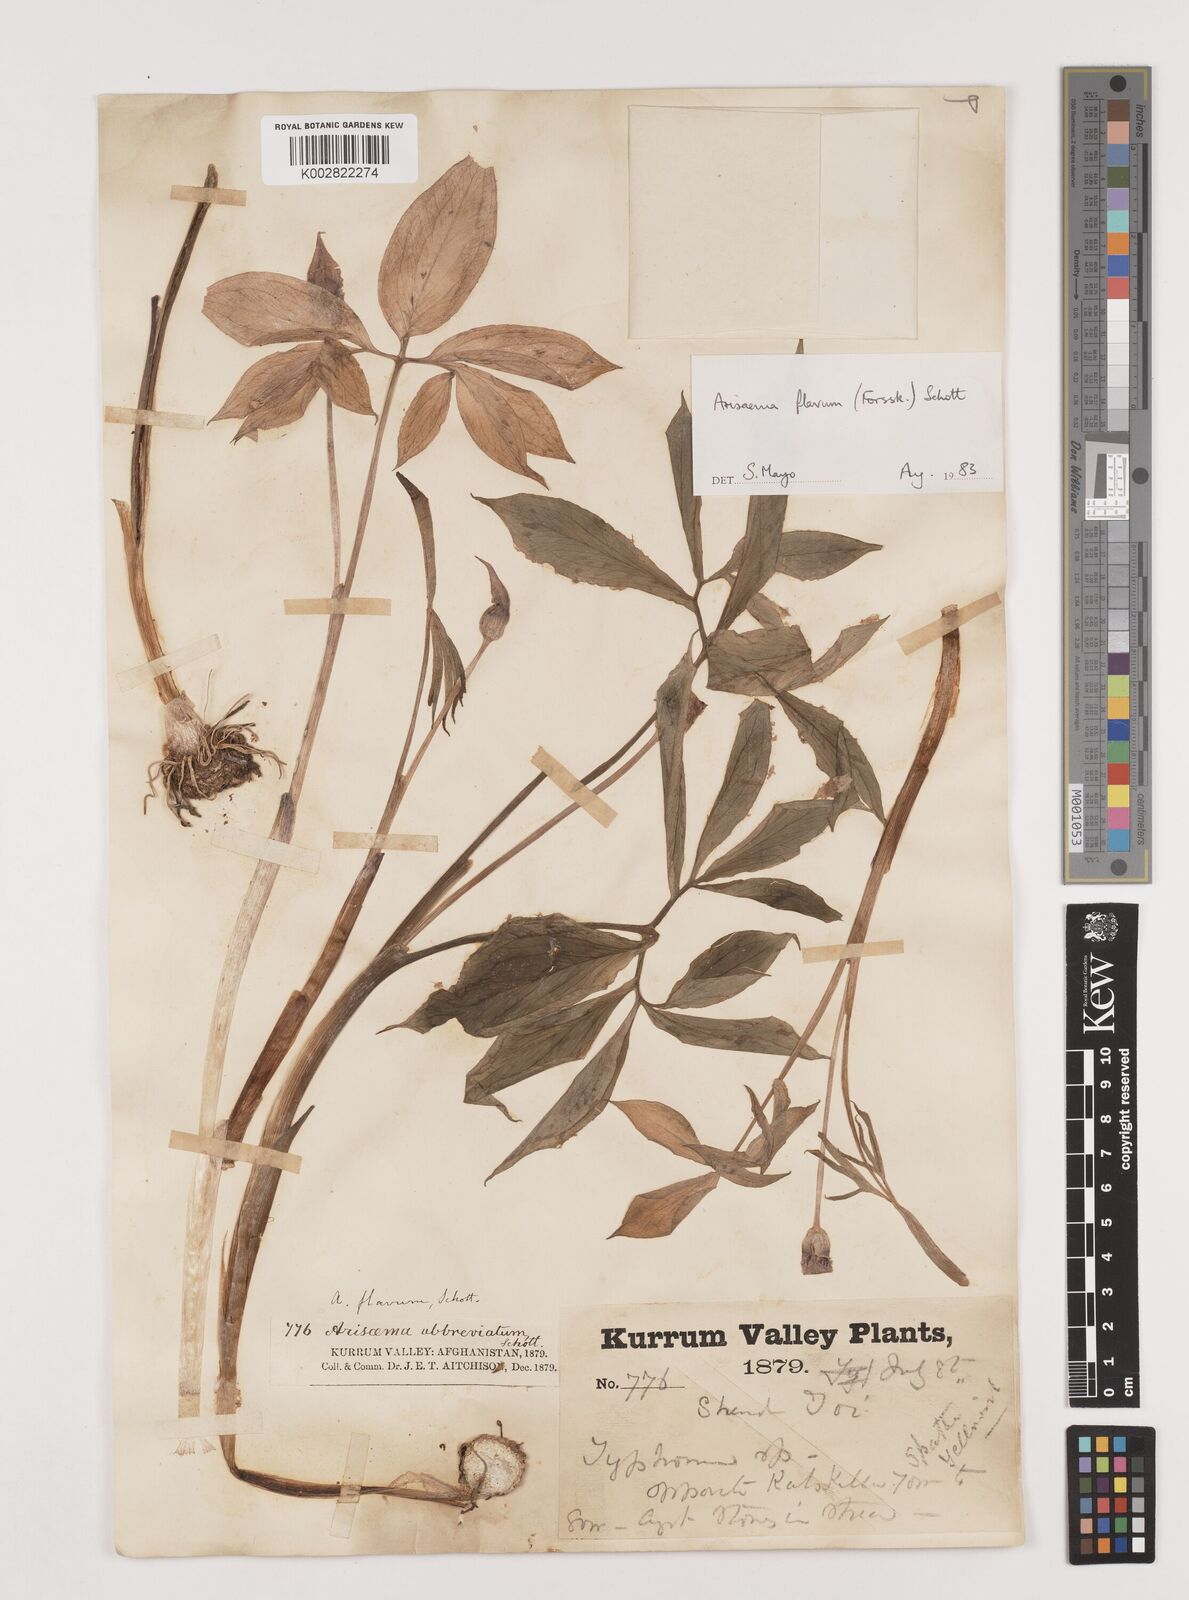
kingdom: Plantae
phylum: Tracheophyta
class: Liliopsida
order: Alismatales
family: Araceae
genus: Arisaema
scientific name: Arisaema flavum
